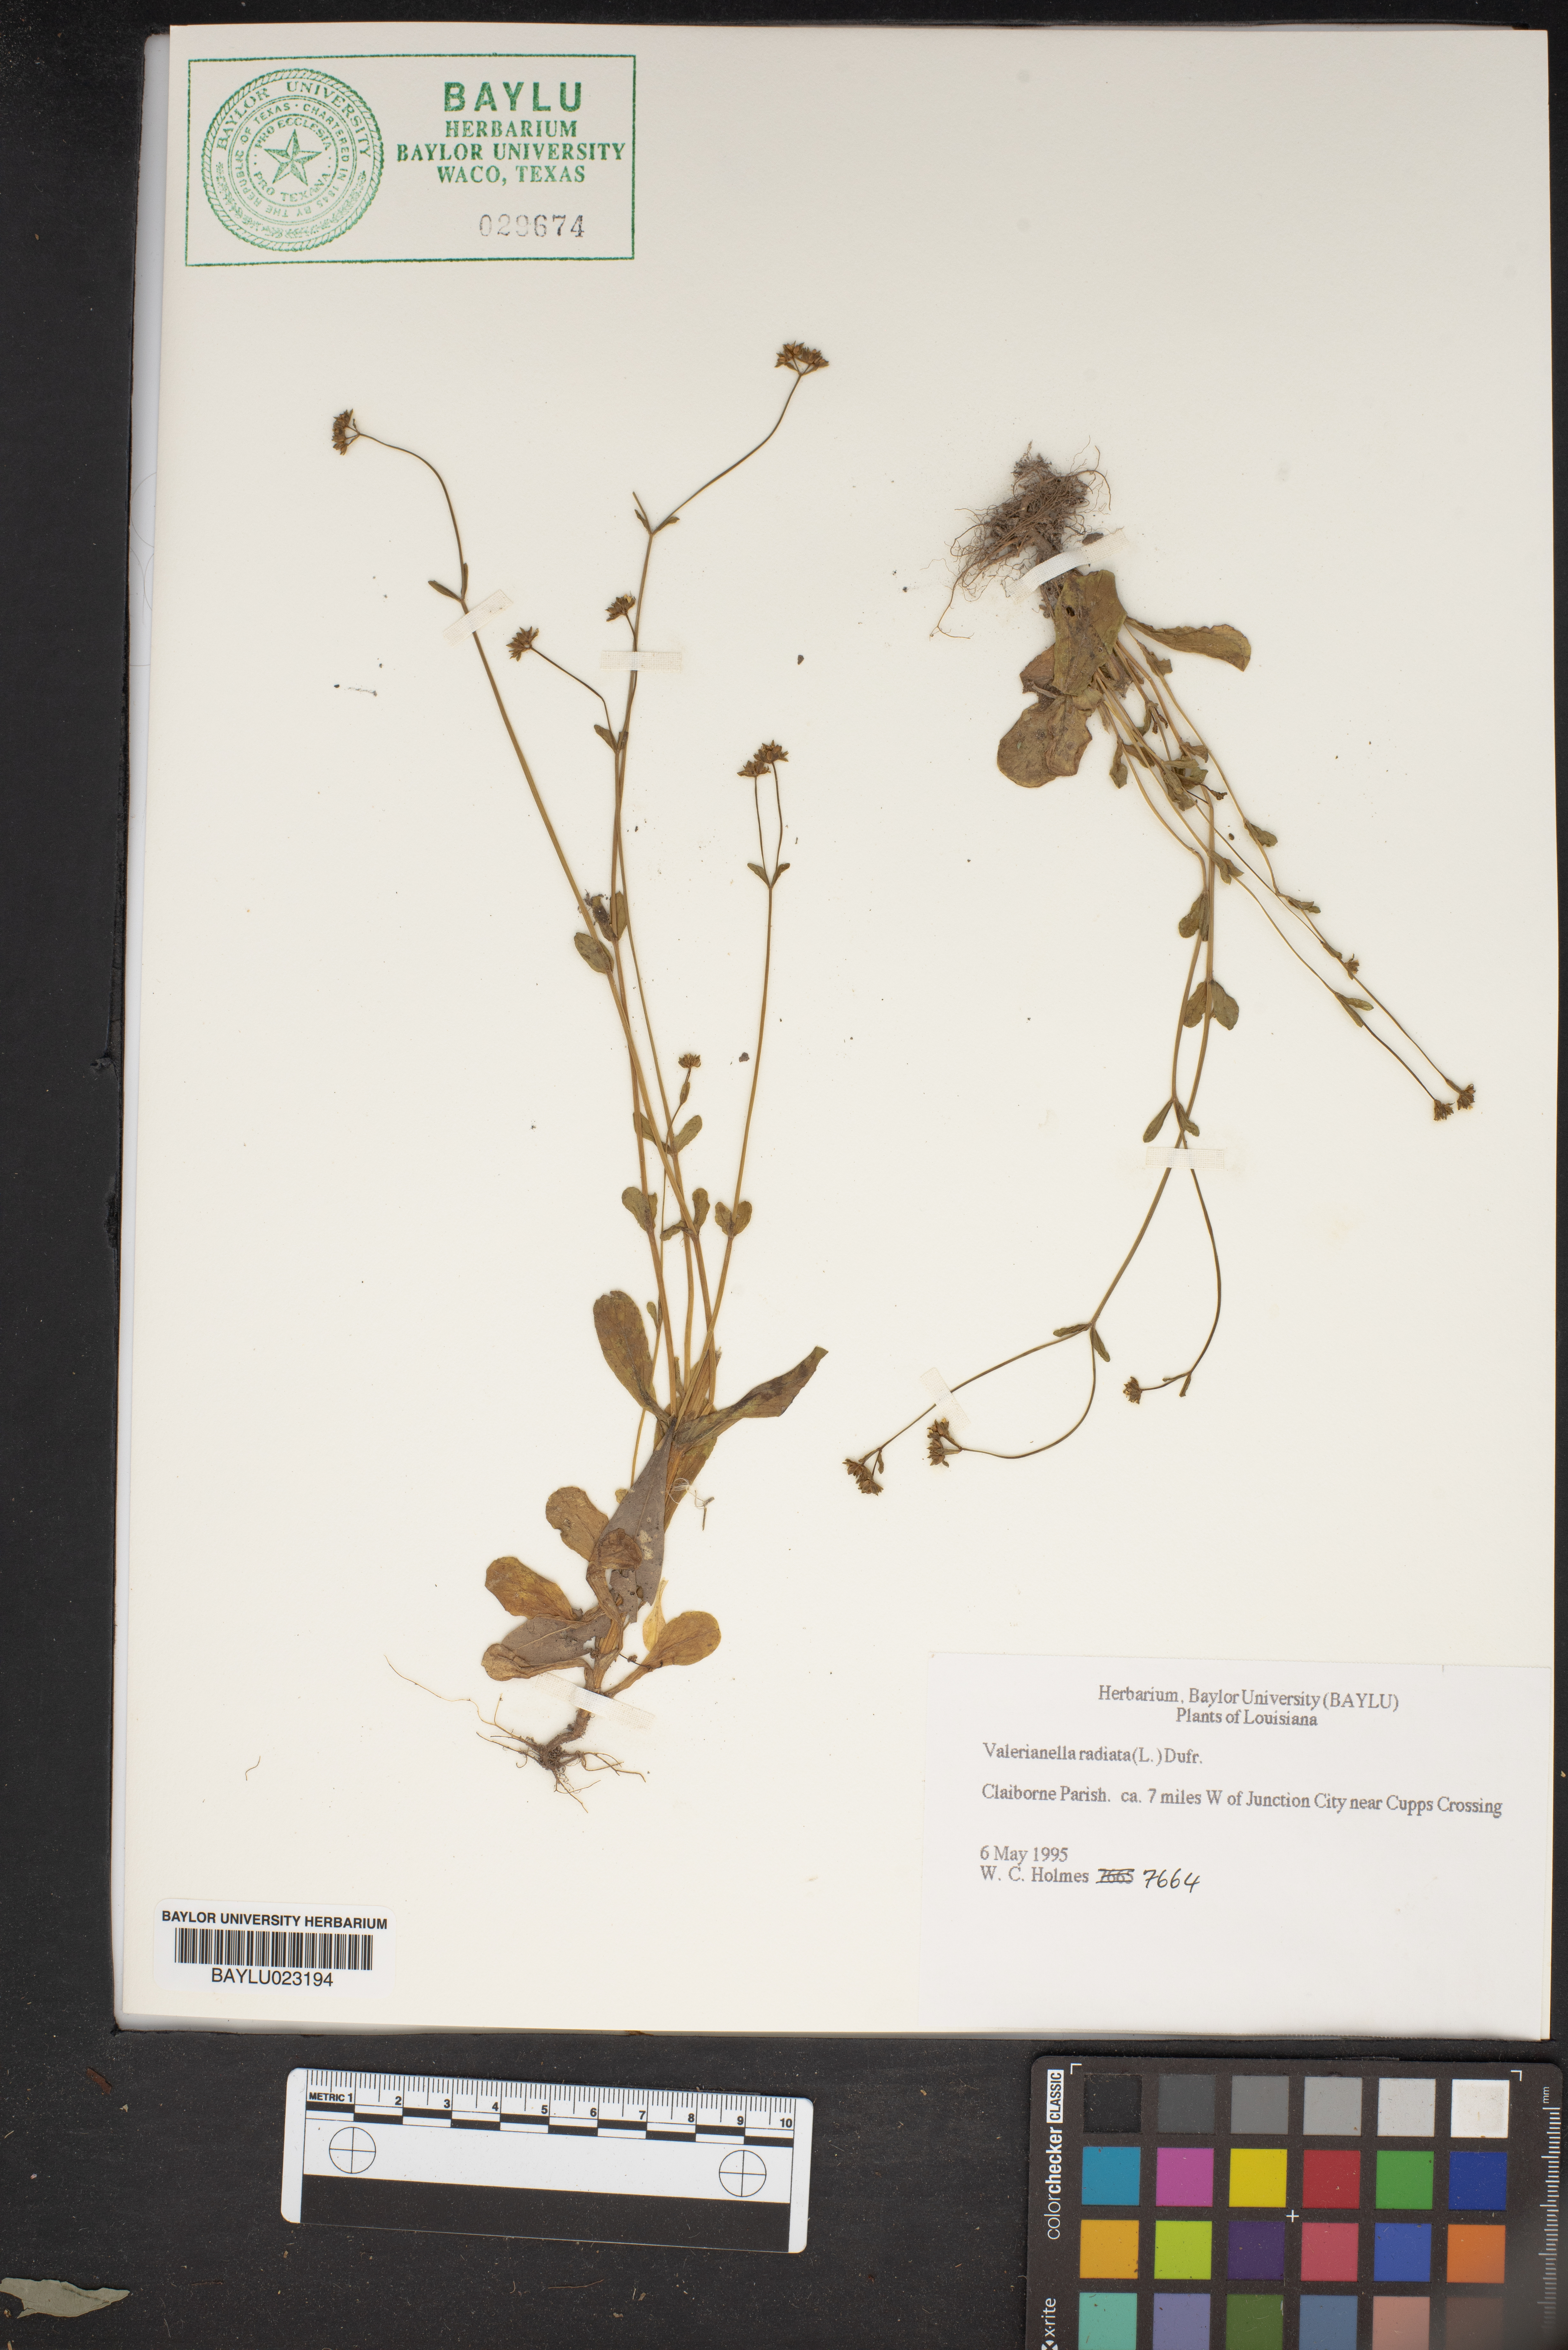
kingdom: Plantae
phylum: Tracheophyta
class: Magnoliopsida
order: Dipsacales
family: Caprifoliaceae
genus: Valerianella
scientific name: Valerianella radiata
